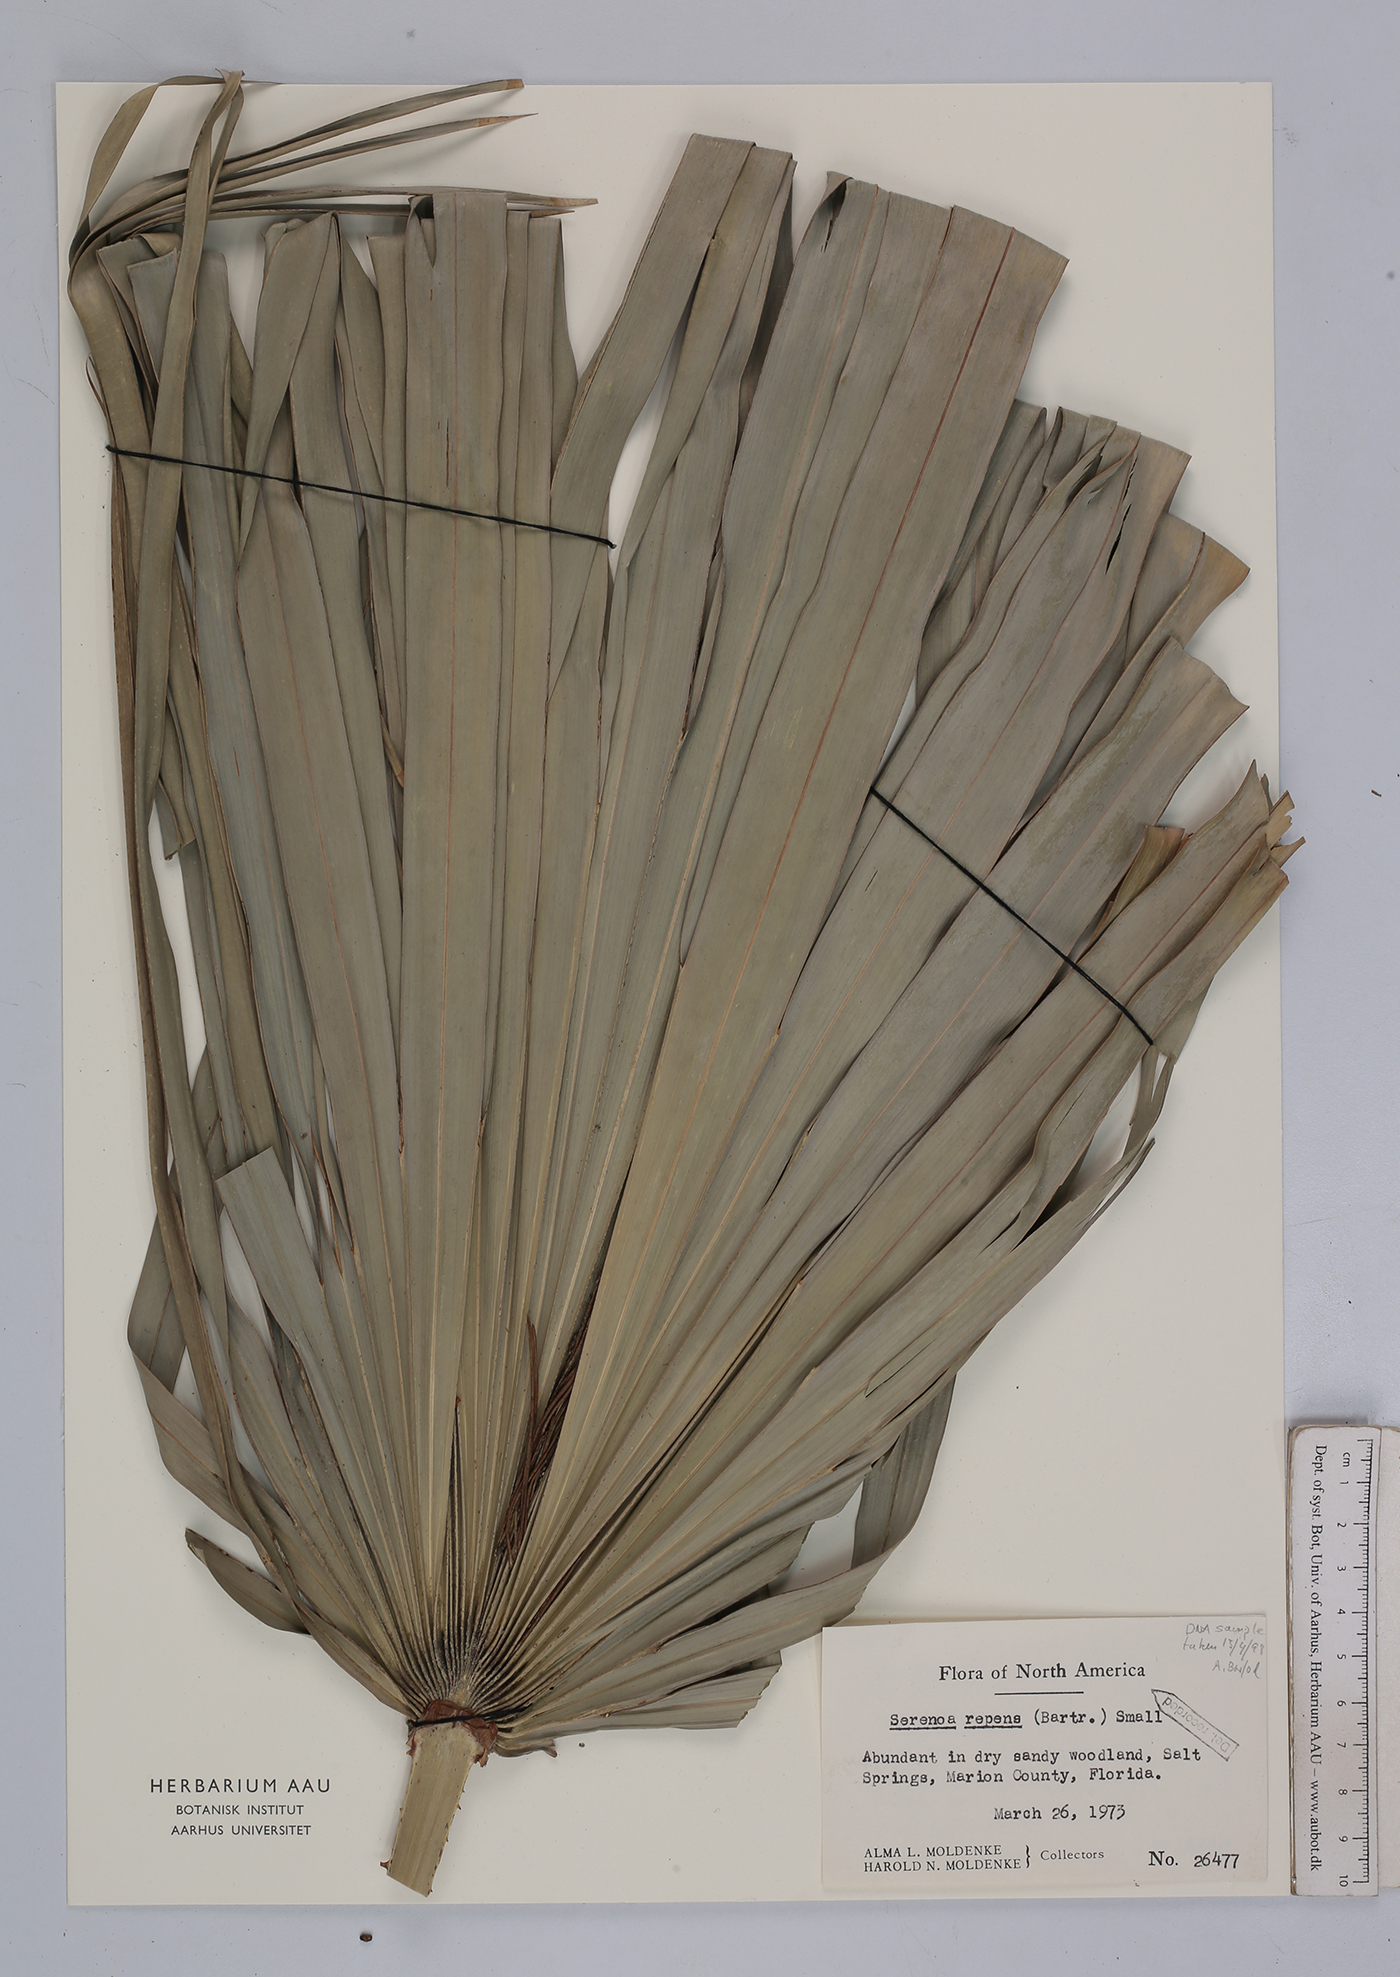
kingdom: Plantae
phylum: Tracheophyta
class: Liliopsida
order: Arecales
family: Arecaceae
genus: Serenoa
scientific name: Serenoa repens
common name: Saw-palmetto
